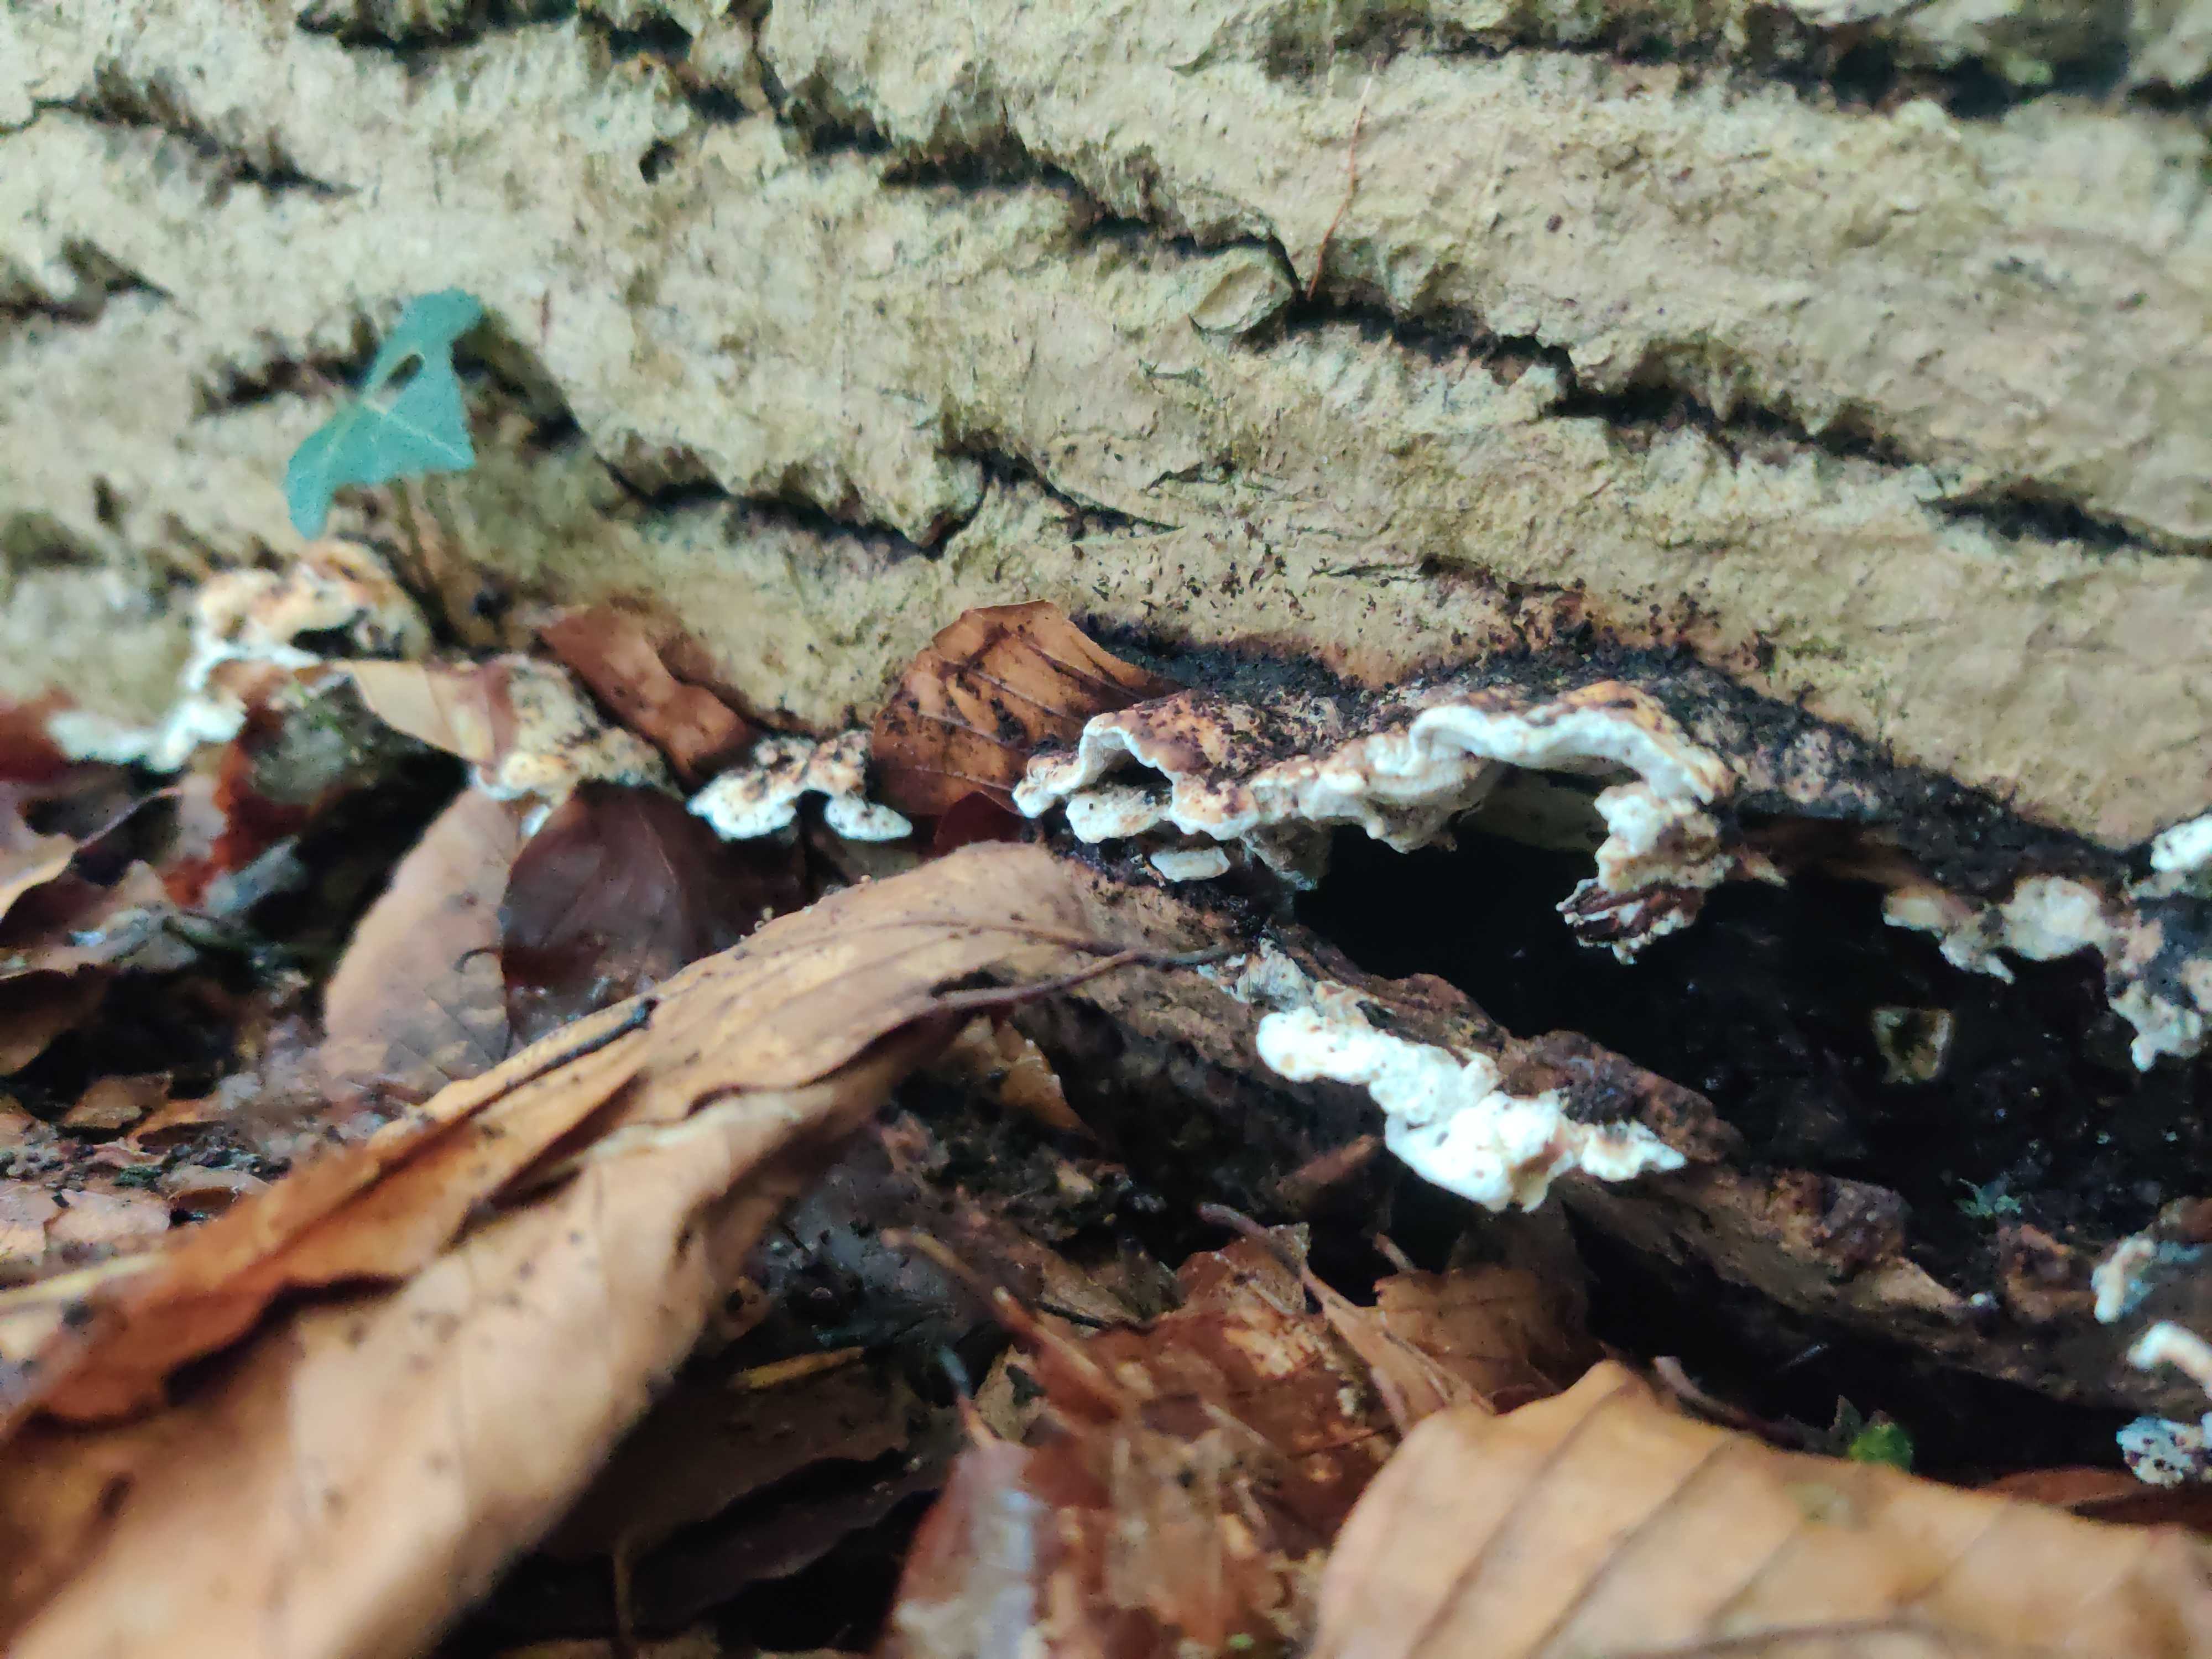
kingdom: Fungi
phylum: Basidiomycota
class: Agaricomycetes
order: Polyporales
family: Incrustoporiaceae
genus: Skeletocutis
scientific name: Skeletocutis nemoralis
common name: stor krystalporesvamp
